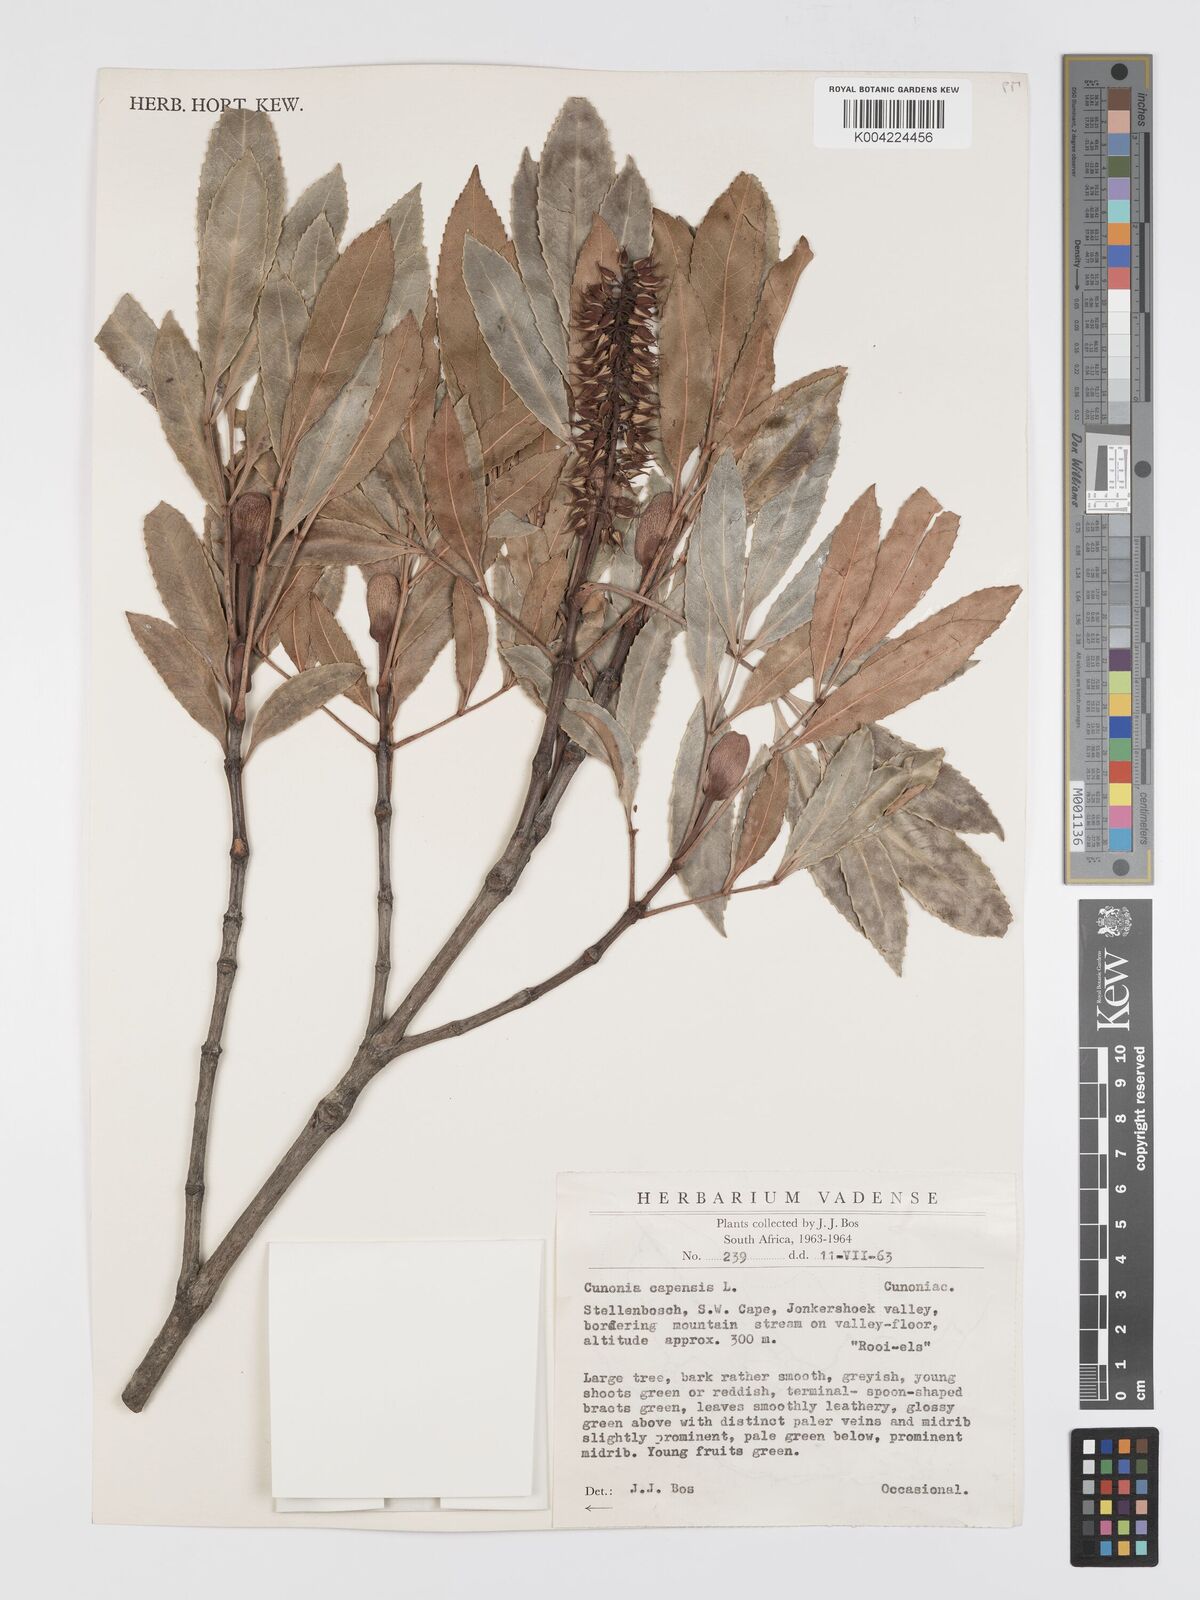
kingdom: Plantae
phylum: Tracheophyta
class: Magnoliopsida
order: Oxalidales
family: Cunoniaceae
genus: Cunonia
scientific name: Cunonia capensis
